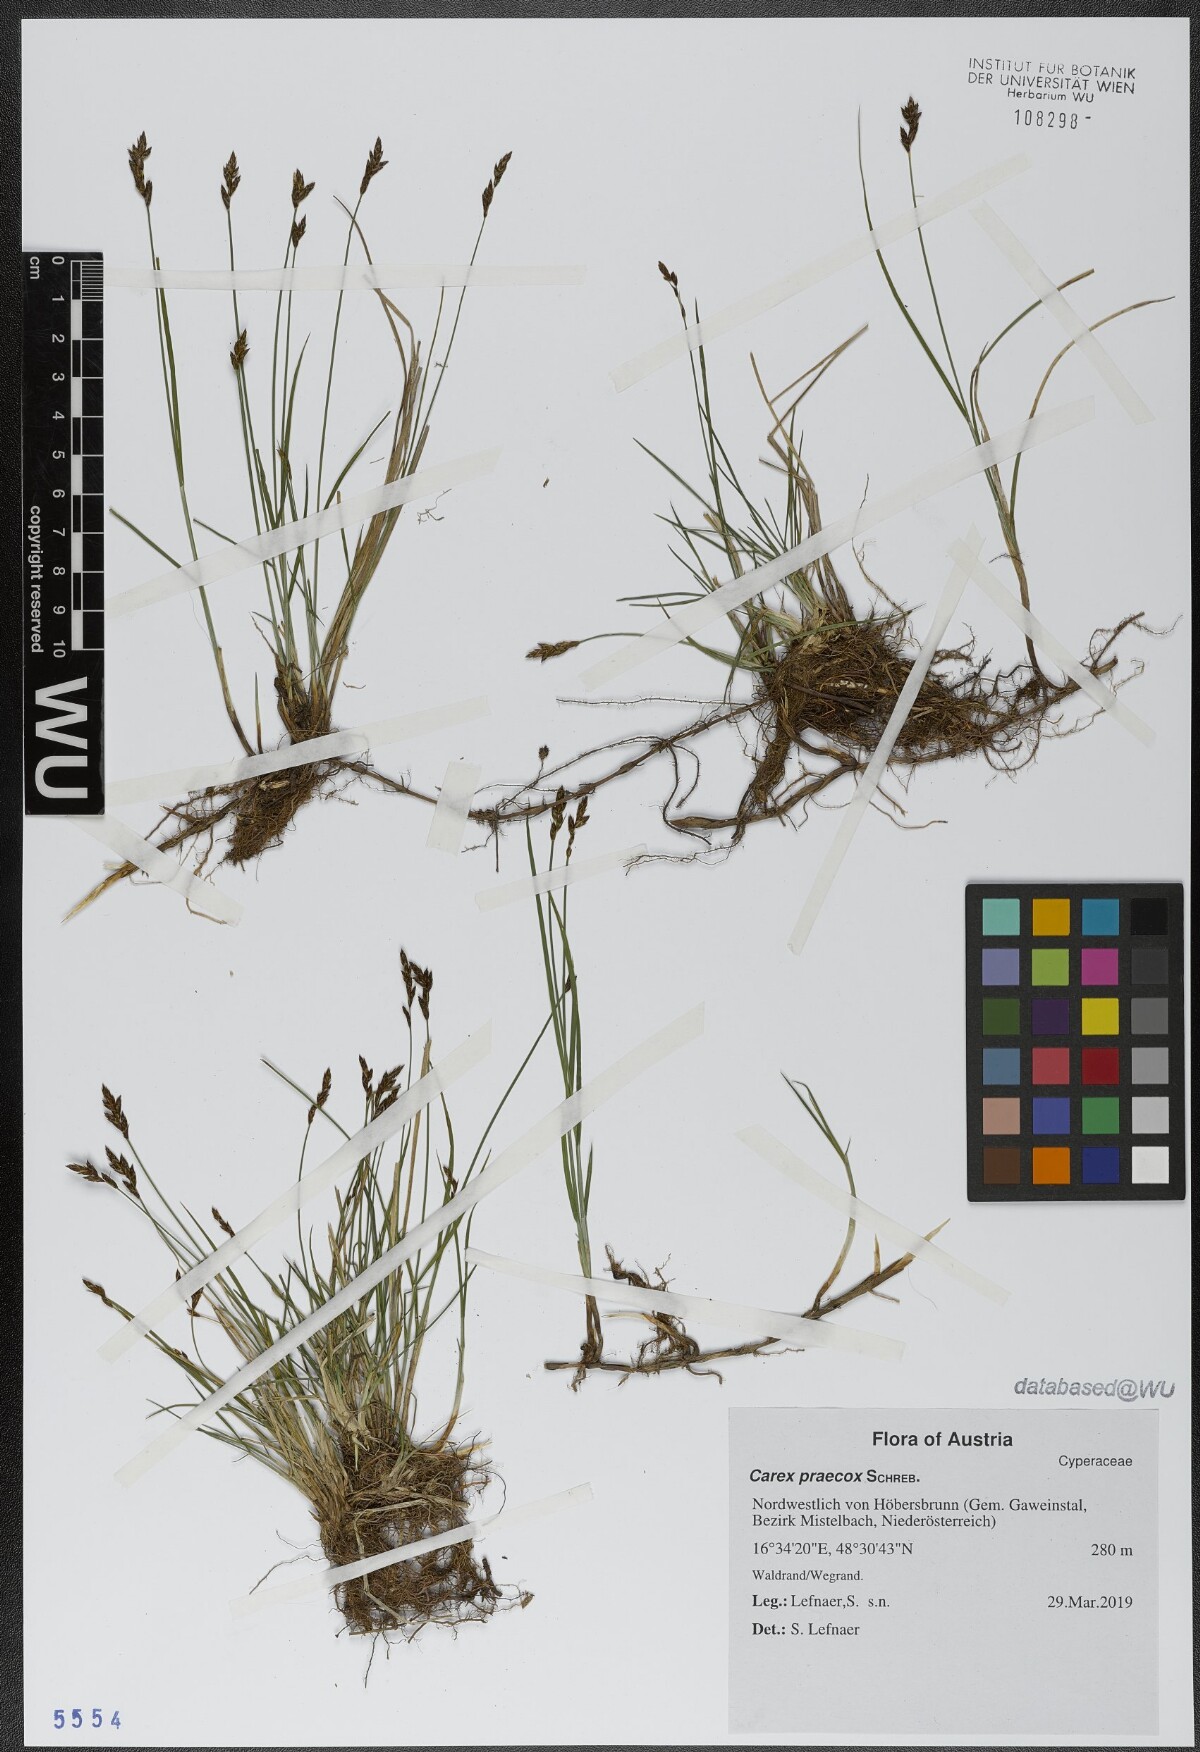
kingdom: Plantae
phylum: Tracheophyta
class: Liliopsida
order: Poales
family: Cyperaceae
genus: Carex
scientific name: Carex praecox
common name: Early sedge
